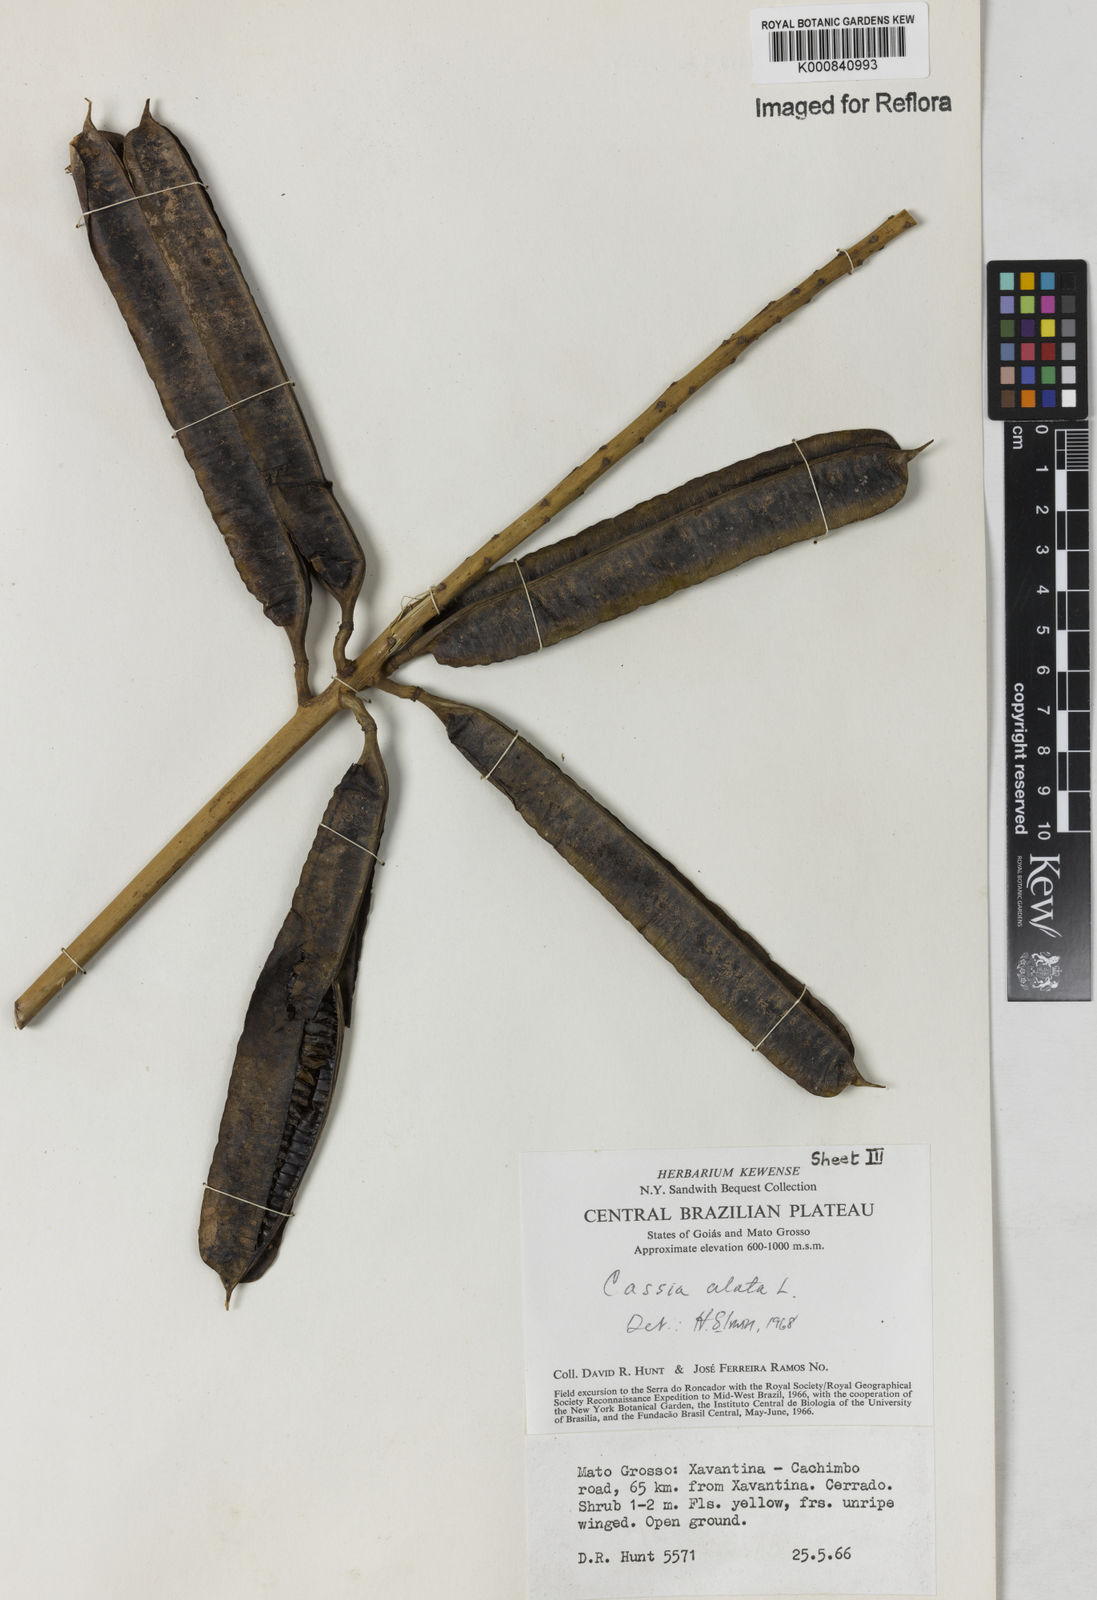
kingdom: Plantae
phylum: Tracheophyta
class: Magnoliopsida
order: Fabales
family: Fabaceae
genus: Senna
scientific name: Senna alata
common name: Emperor's candlesticks
